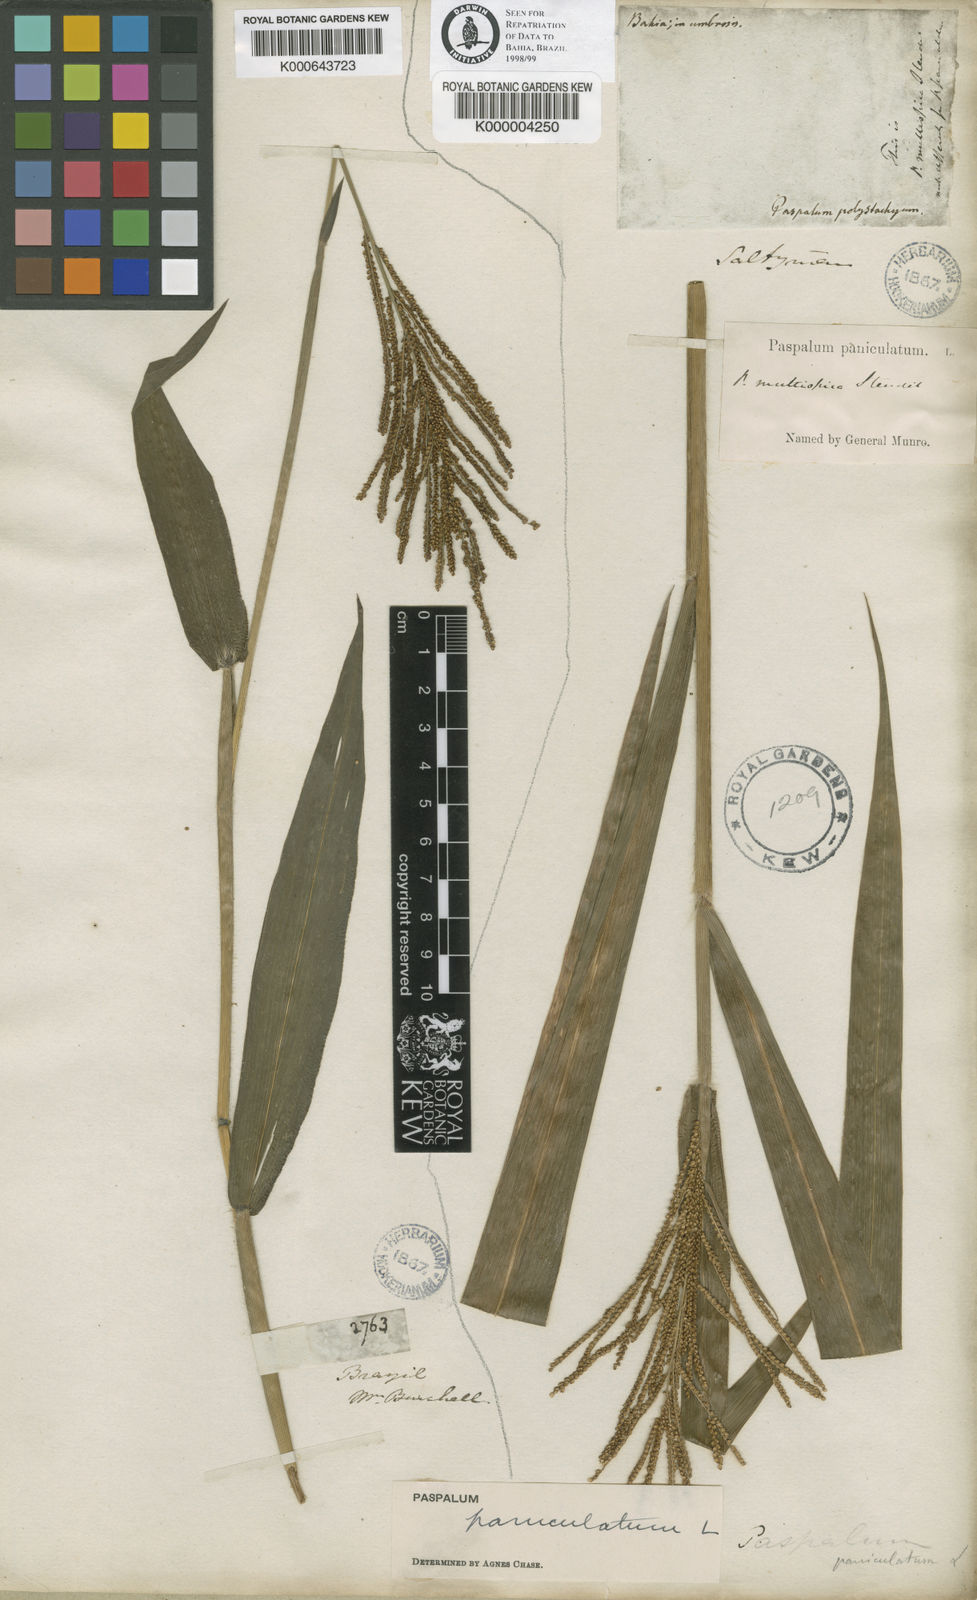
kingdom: Plantae
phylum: Tracheophyta
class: Liliopsida
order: Poales
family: Poaceae
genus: Paspalum
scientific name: Paspalum paniculatum
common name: Arrocillo
